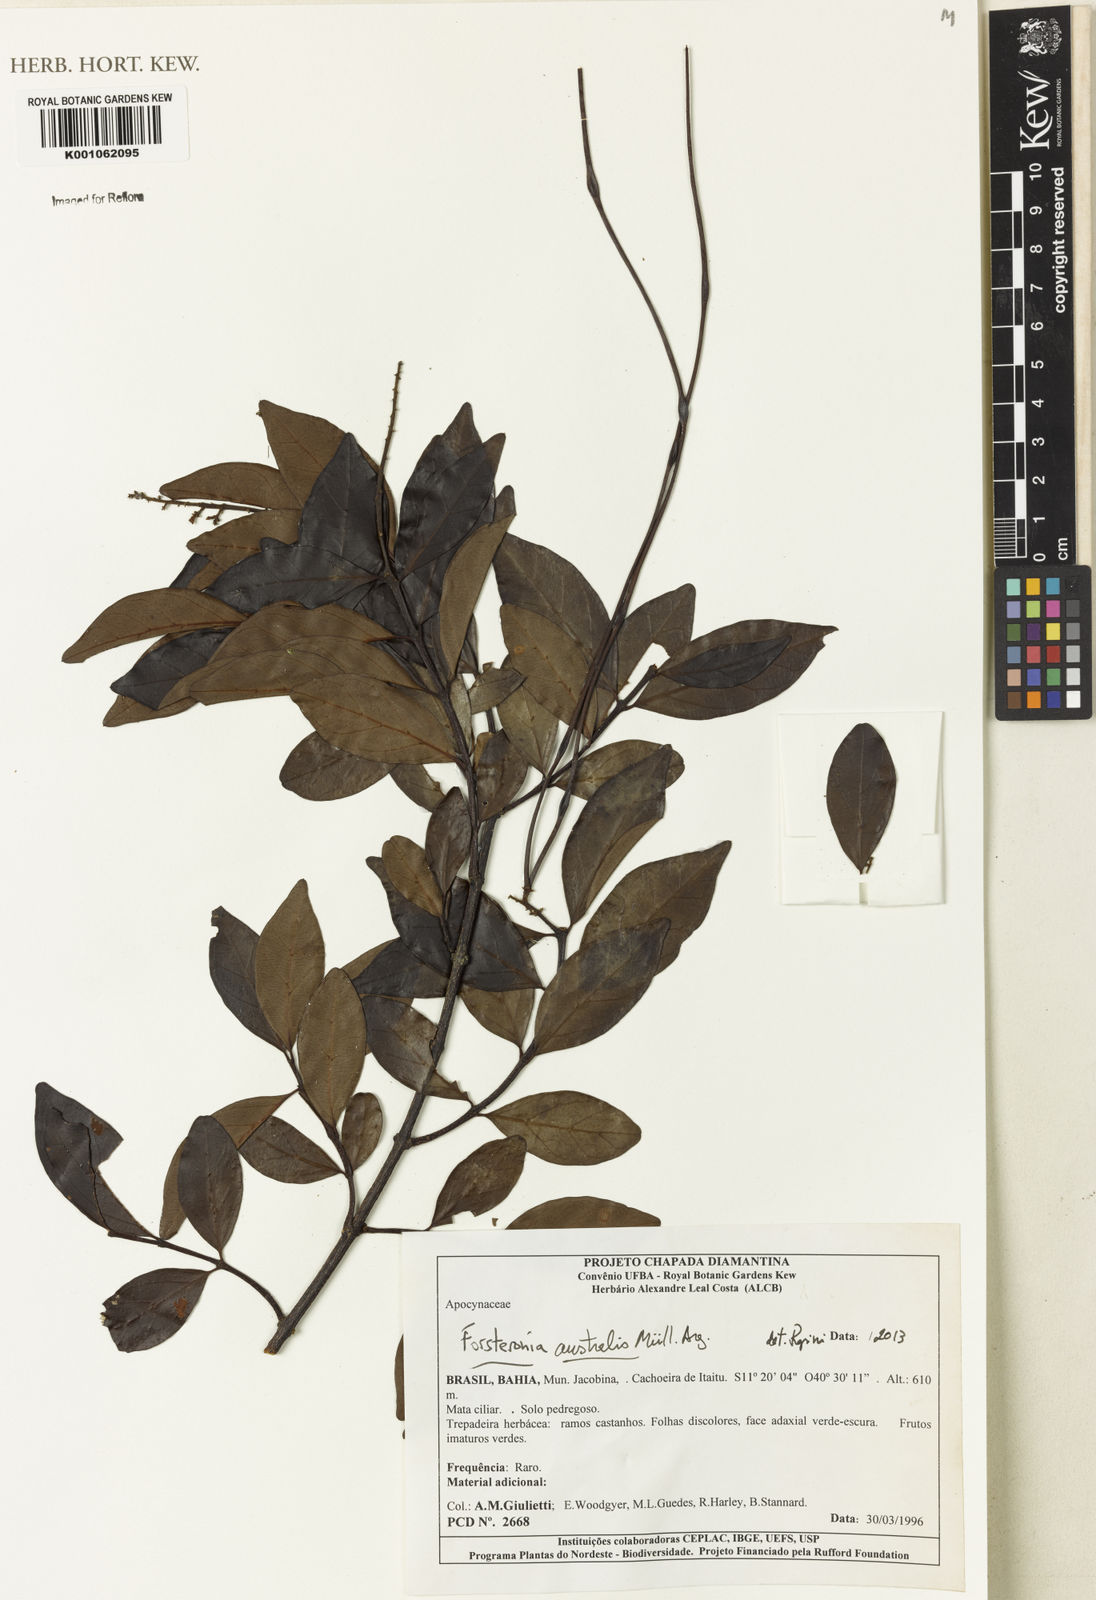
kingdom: Plantae
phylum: Tracheophyta
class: Magnoliopsida
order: Gentianales
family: Apocynaceae
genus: Forsteronia
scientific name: Forsteronia
